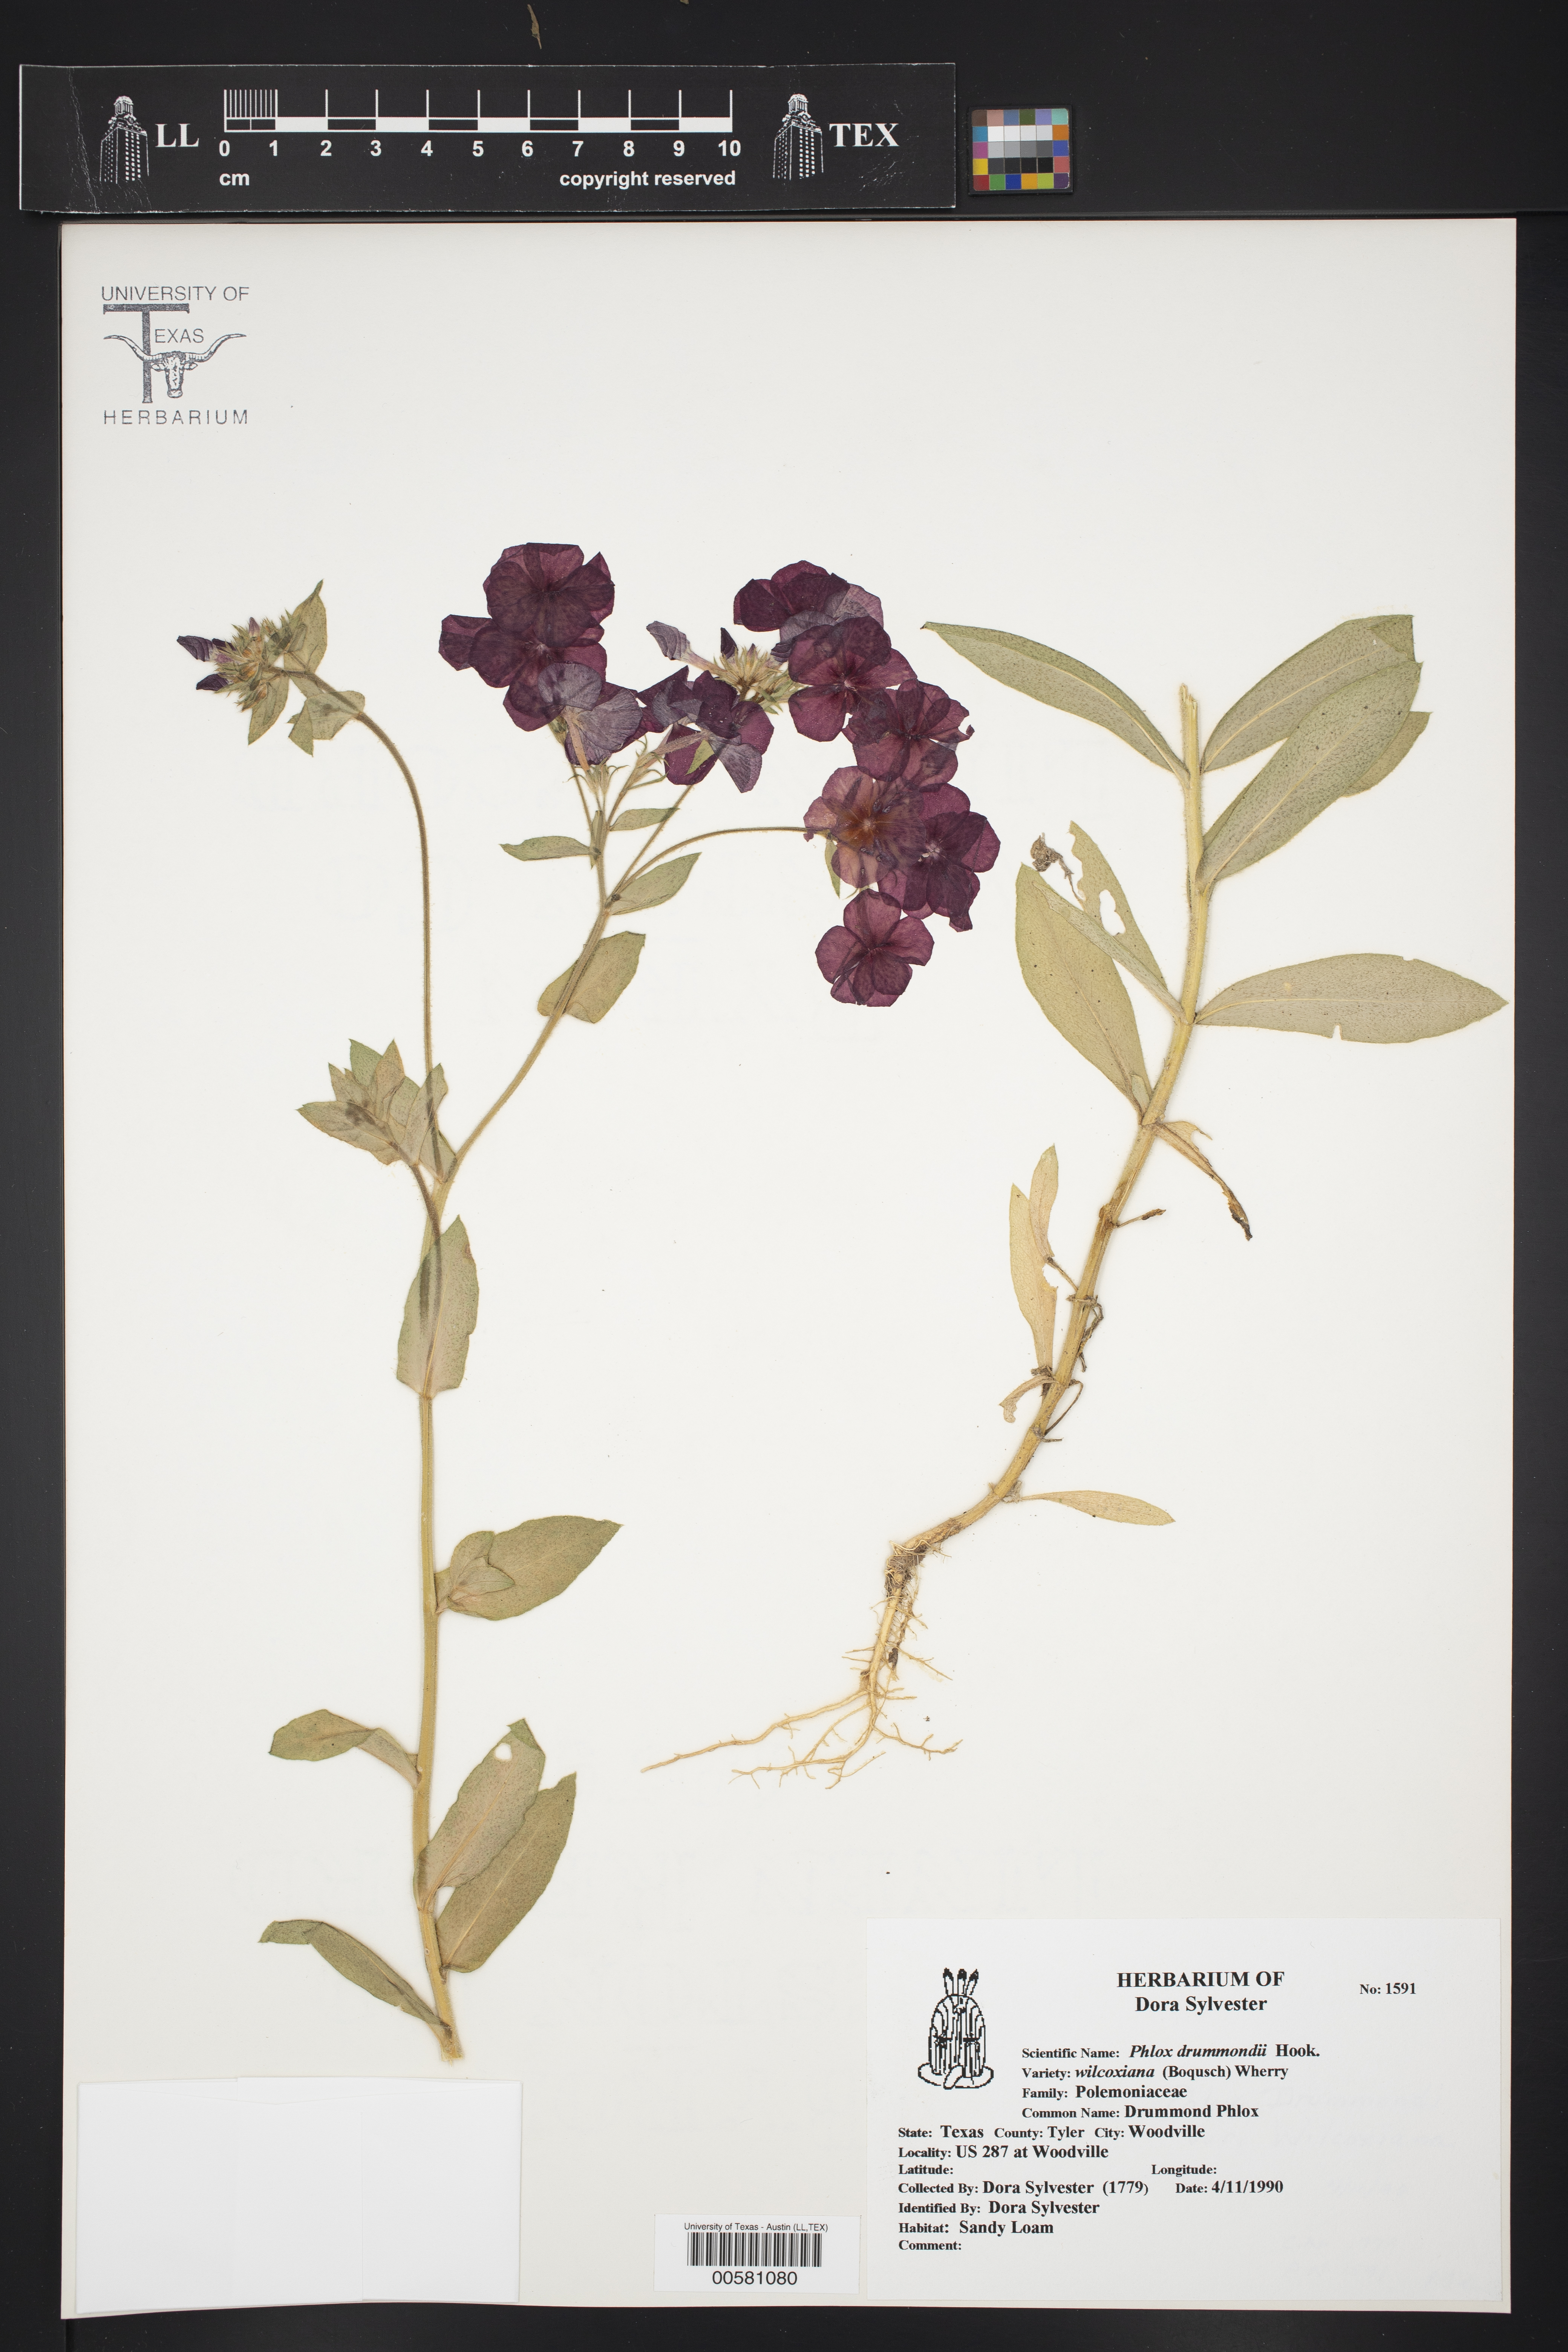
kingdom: Plantae
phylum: Tracheophyta
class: Magnoliopsida
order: Ericales
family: Polemoniaceae
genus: Phlox
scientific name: Phlox drummondii
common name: Drummond's phlox
